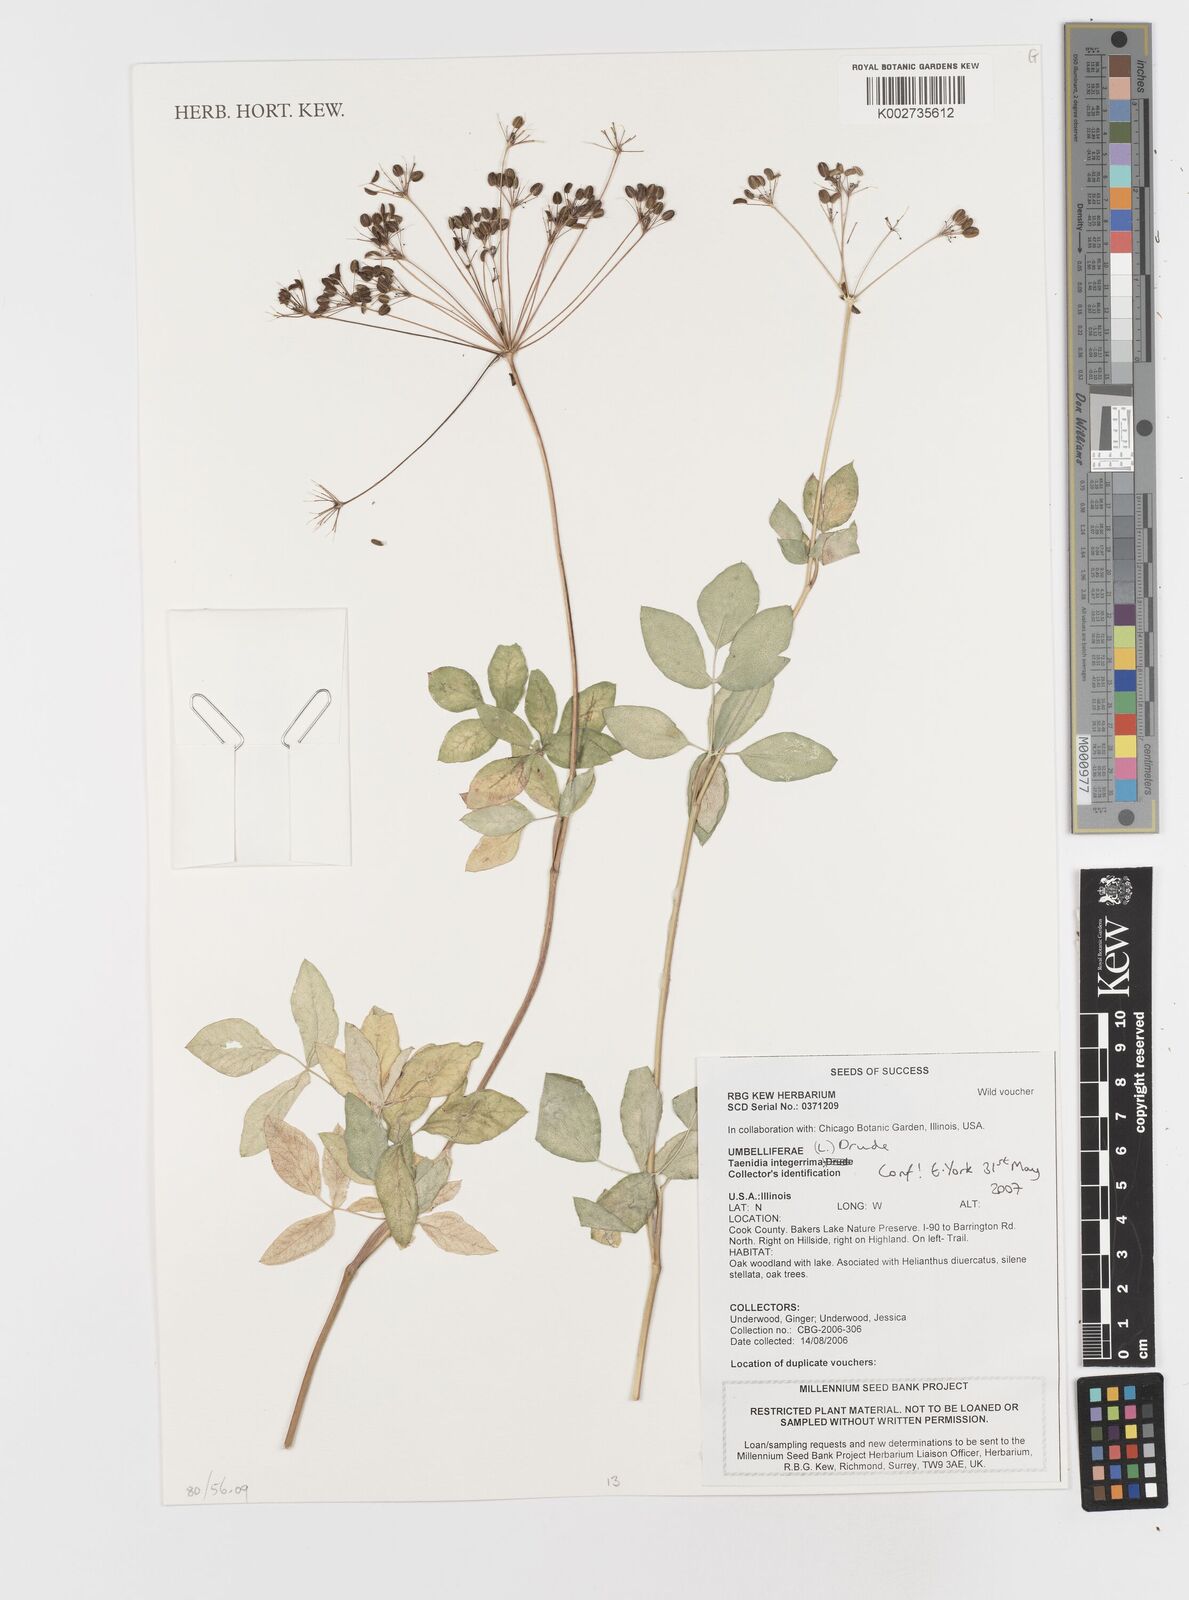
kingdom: Plantae
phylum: Tracheophyta
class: Magnoliopsida
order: Apiales
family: Apiaceae
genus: Taenidia
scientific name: Taenidia integerrima
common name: Golden alexander
